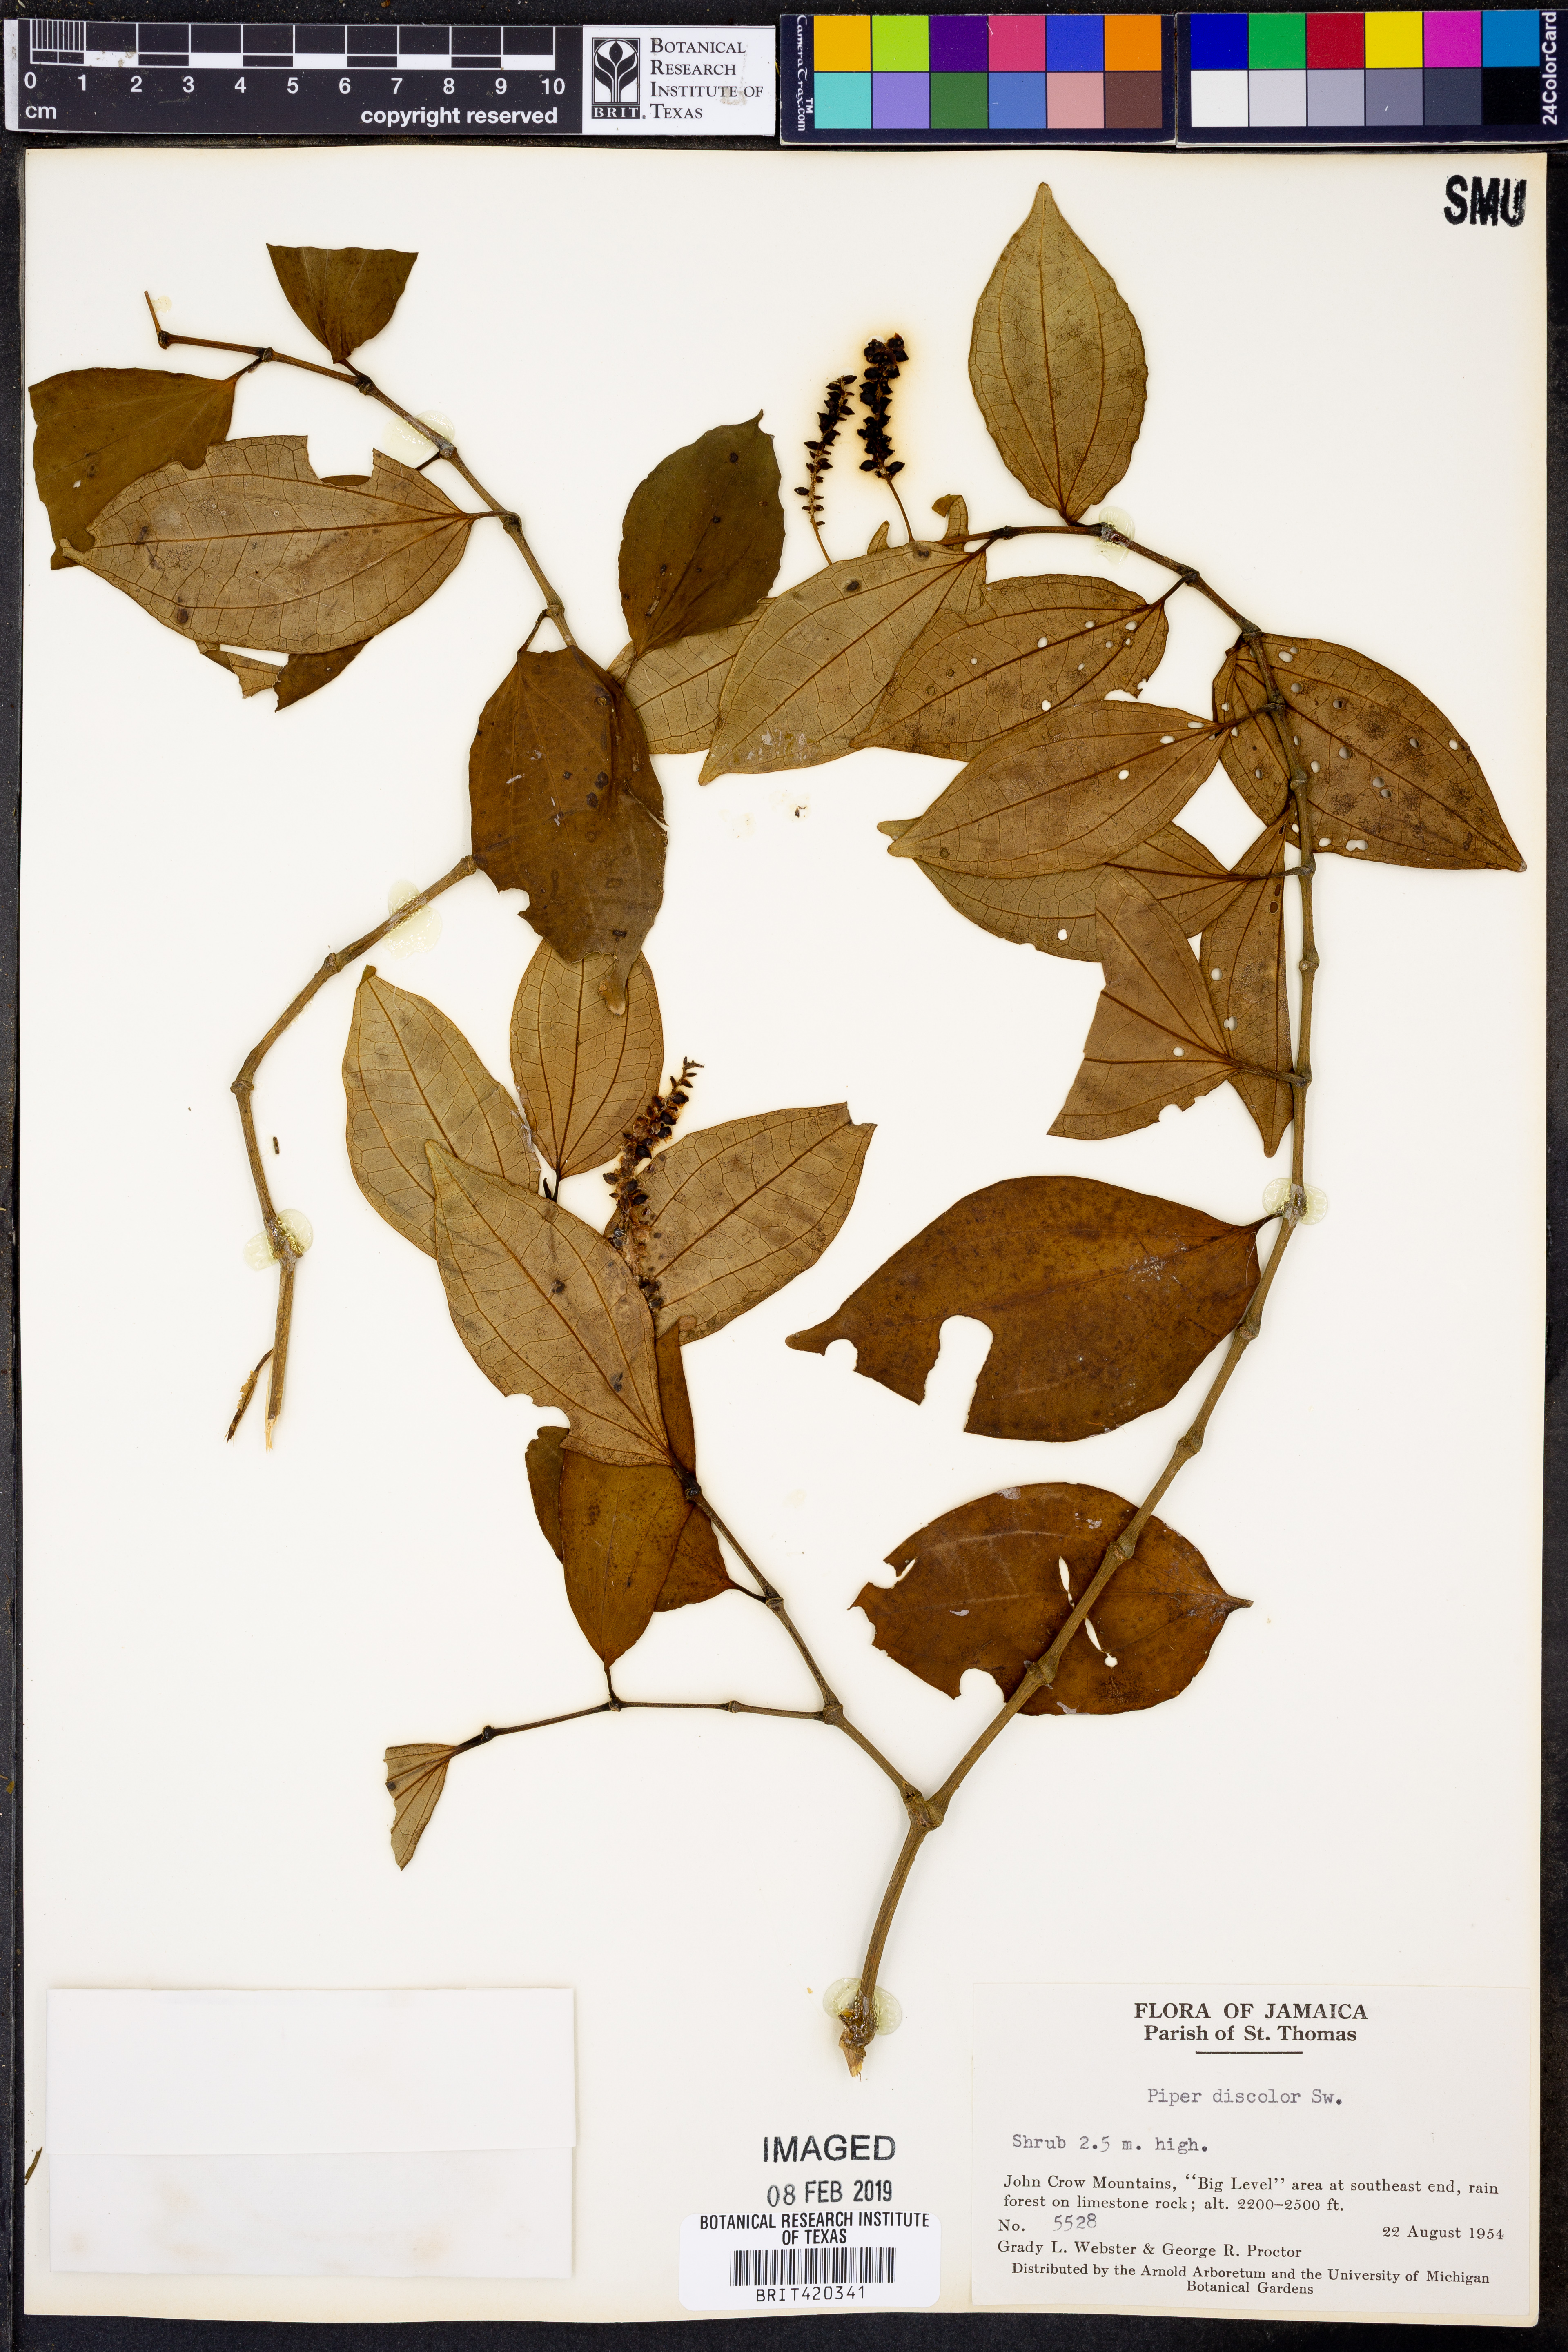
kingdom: Plantae
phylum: Tracheophyta
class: Magnoliopsida
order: Piperales
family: Piperaceae
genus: Peperomia
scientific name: Peperomia discolor
